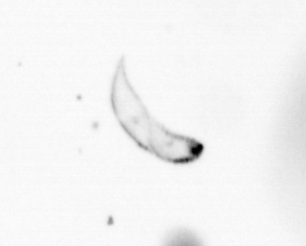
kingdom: Chromista
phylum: Ochrophyta
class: Bacillariophyceae
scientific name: Bacillariophyceae
